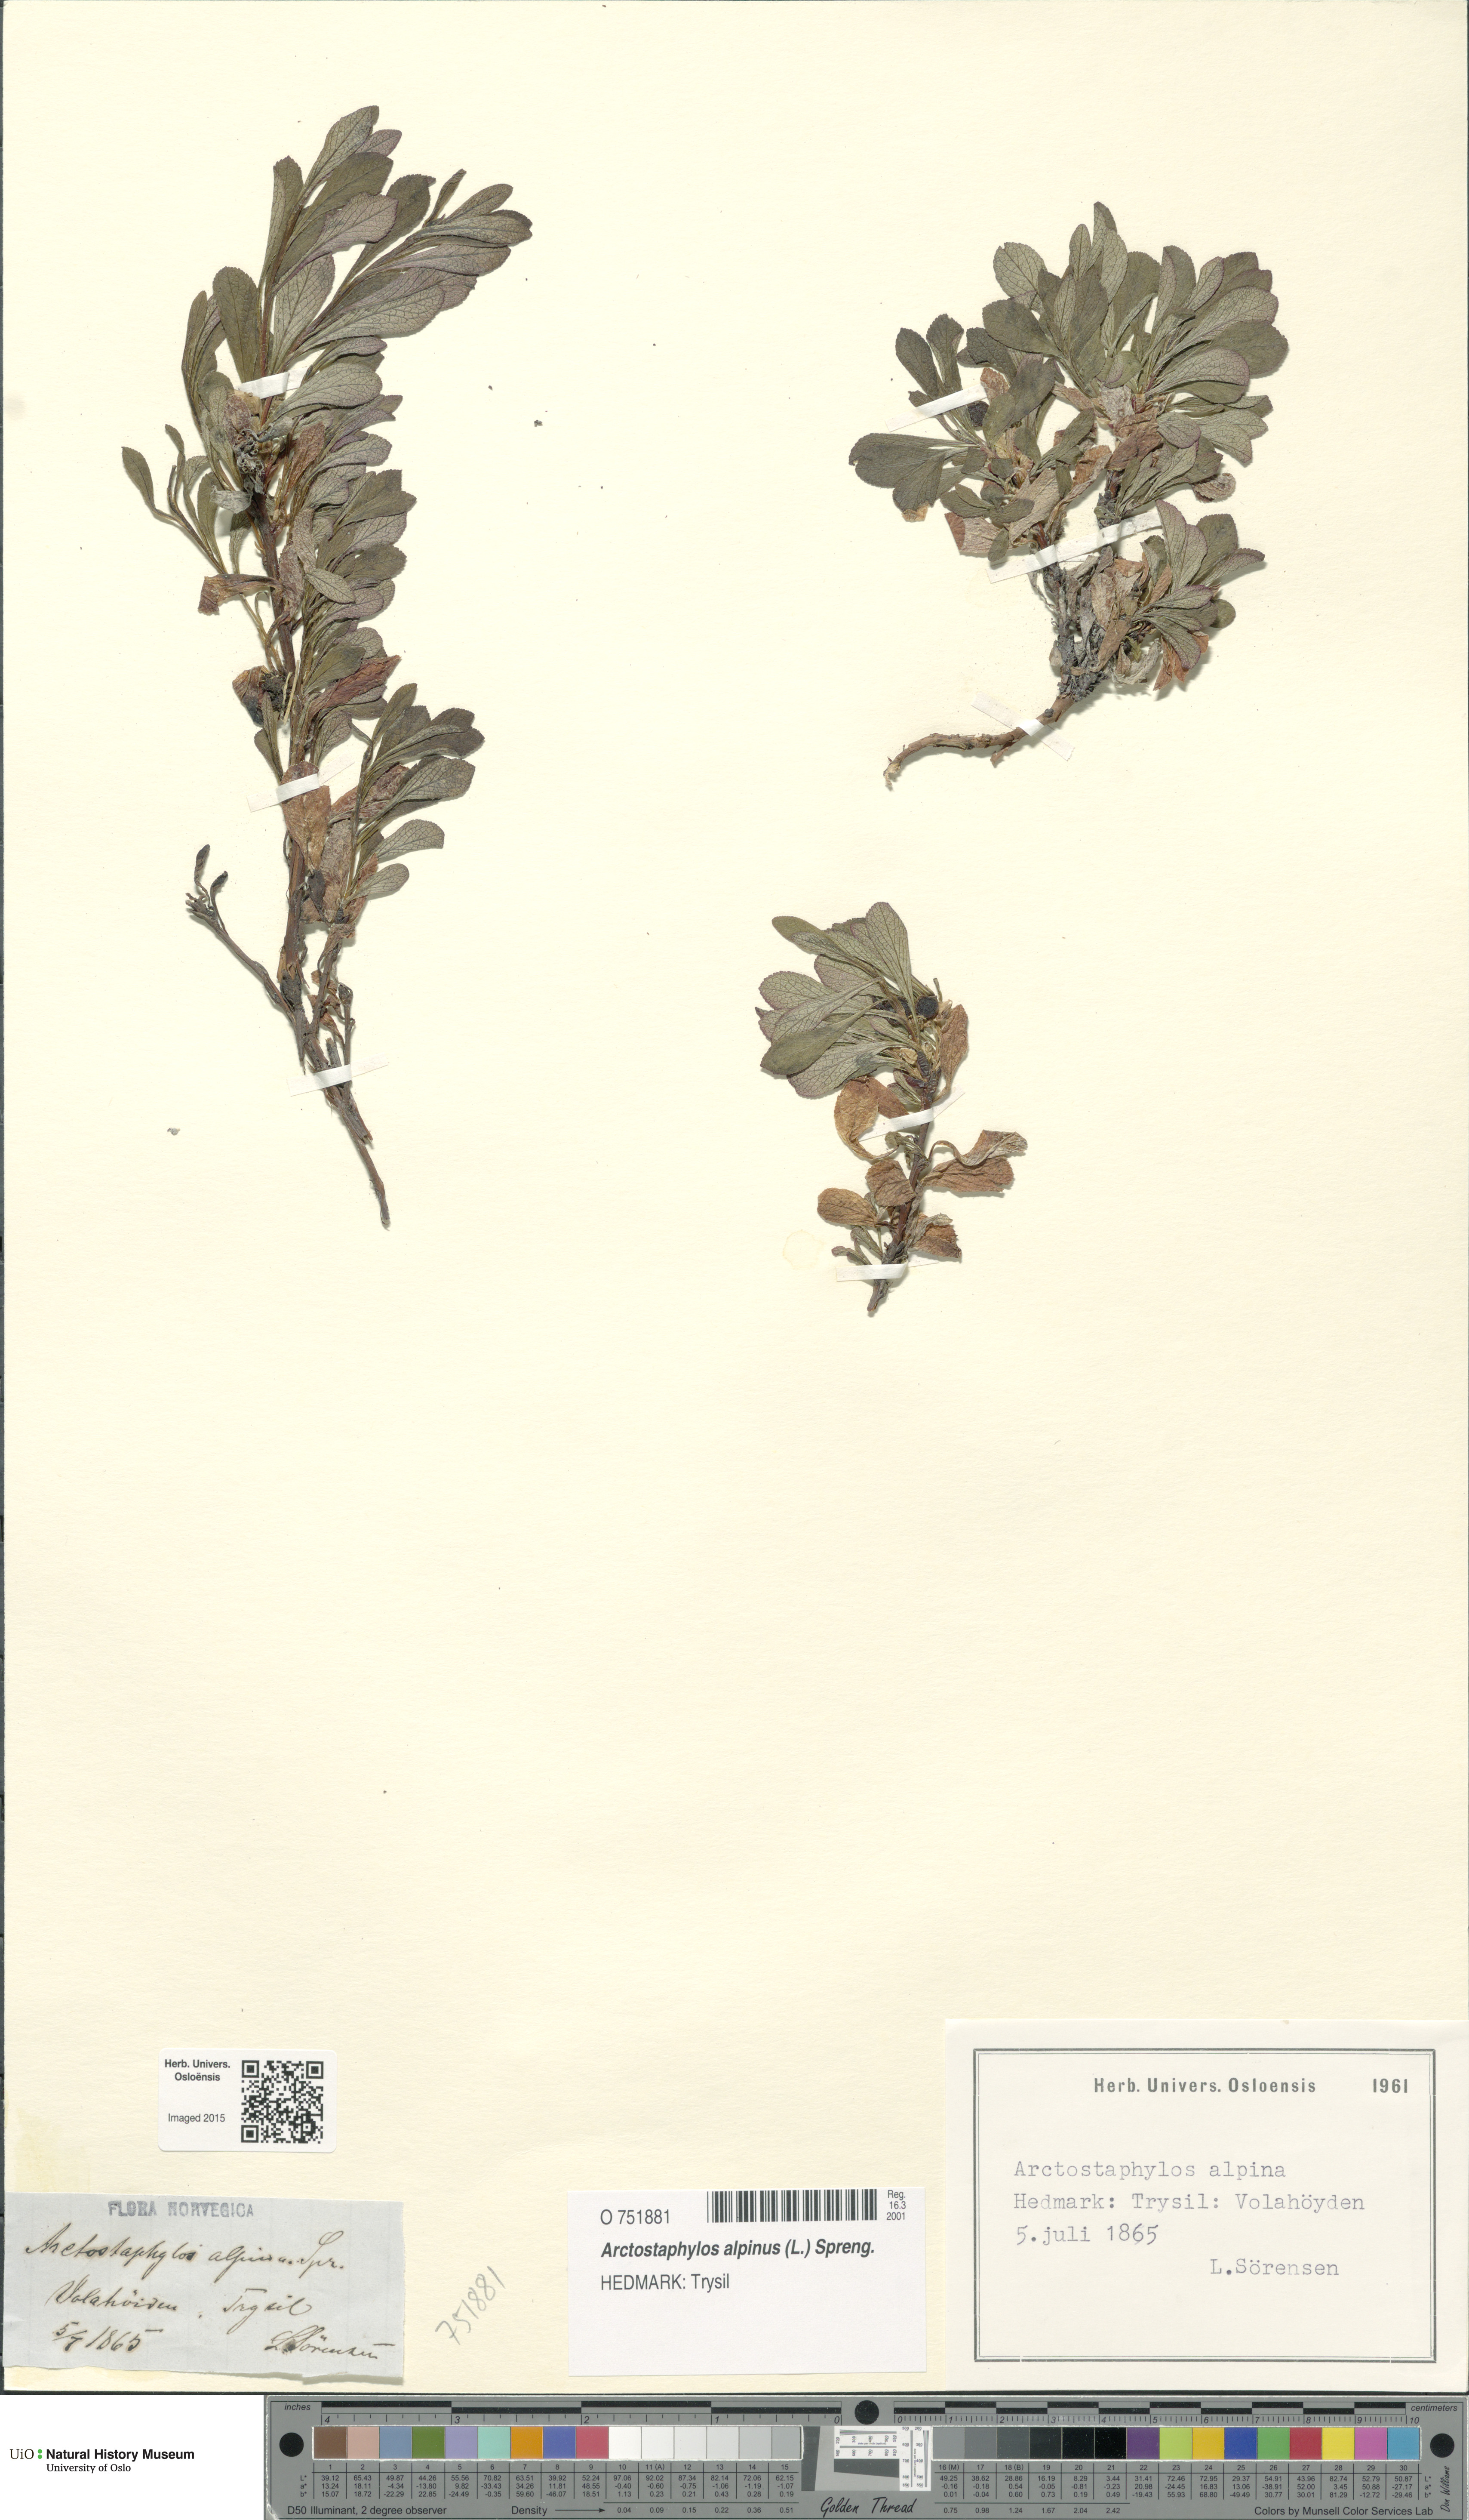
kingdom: Plantae
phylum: Tracheophyta
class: Magnoliopsida
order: Ericales
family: Ericaceae
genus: Arctostaphylos
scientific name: Arctostaphylos alpinus
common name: Alpine bearberry
